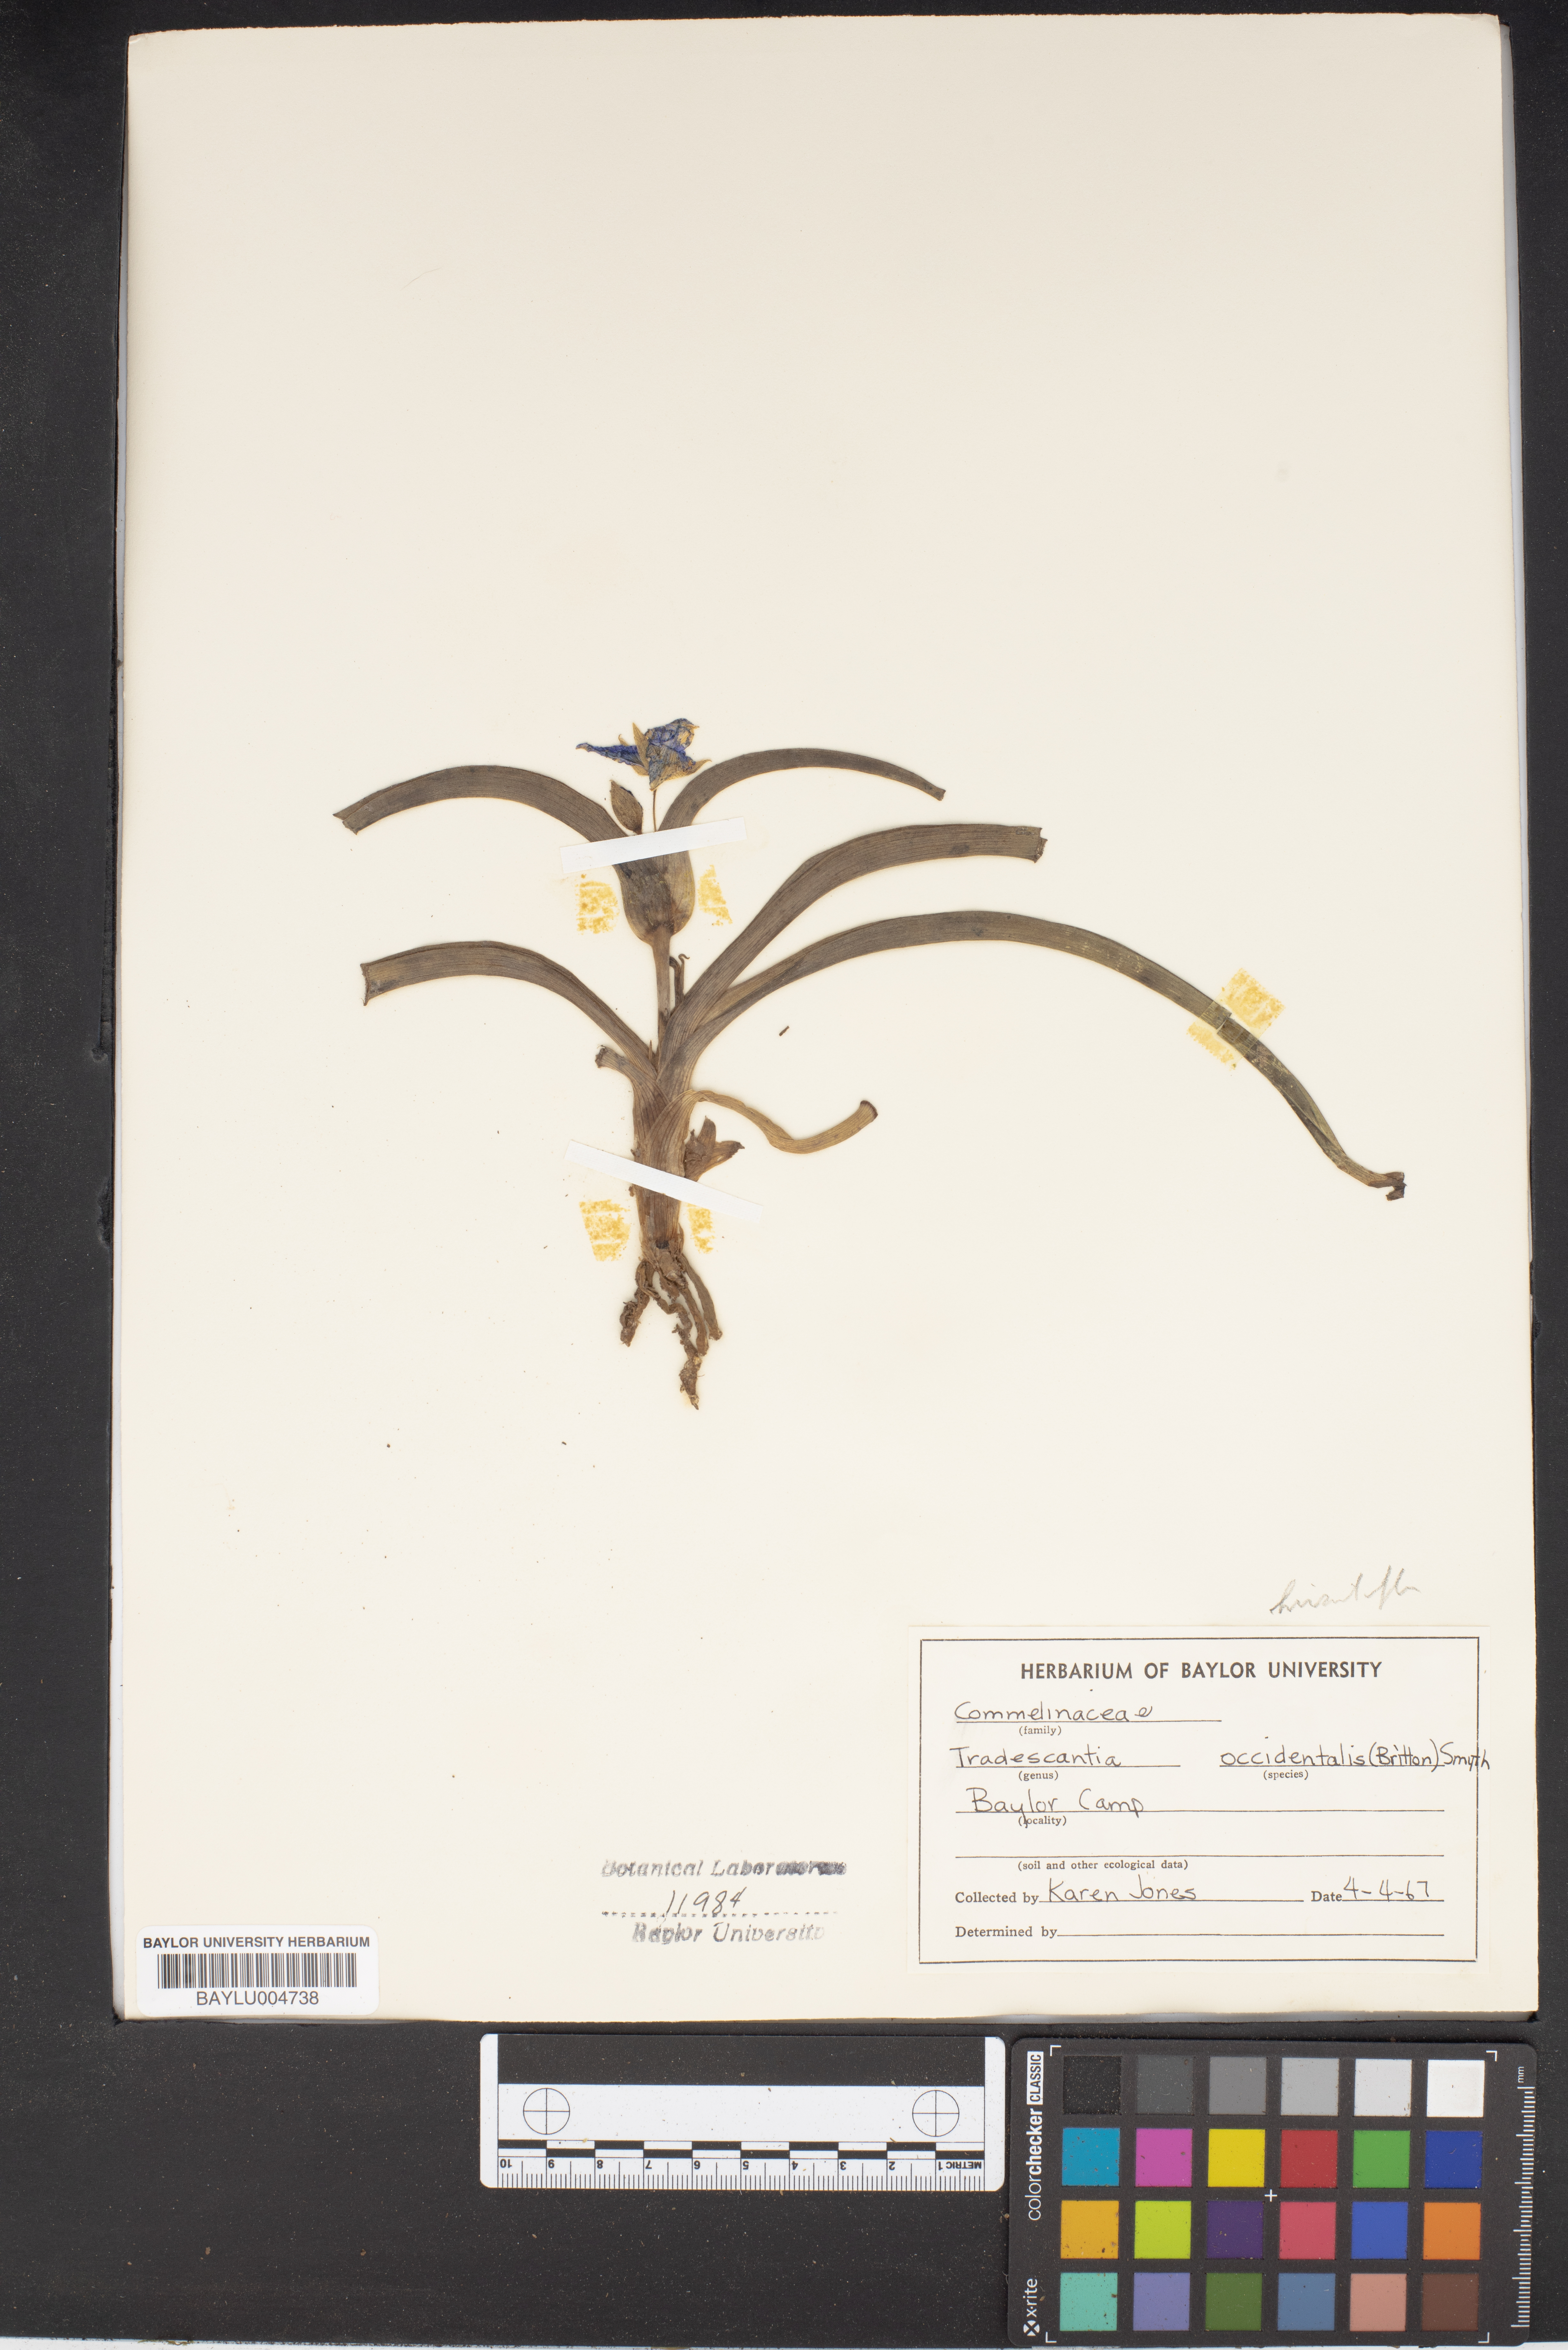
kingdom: Plantae
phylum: Tracheophyta
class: Liliopsida
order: Commelinales
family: Commelinaceae
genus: Tradescantia
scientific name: Tradescantia occidentalis
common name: Prairie spiderwort
